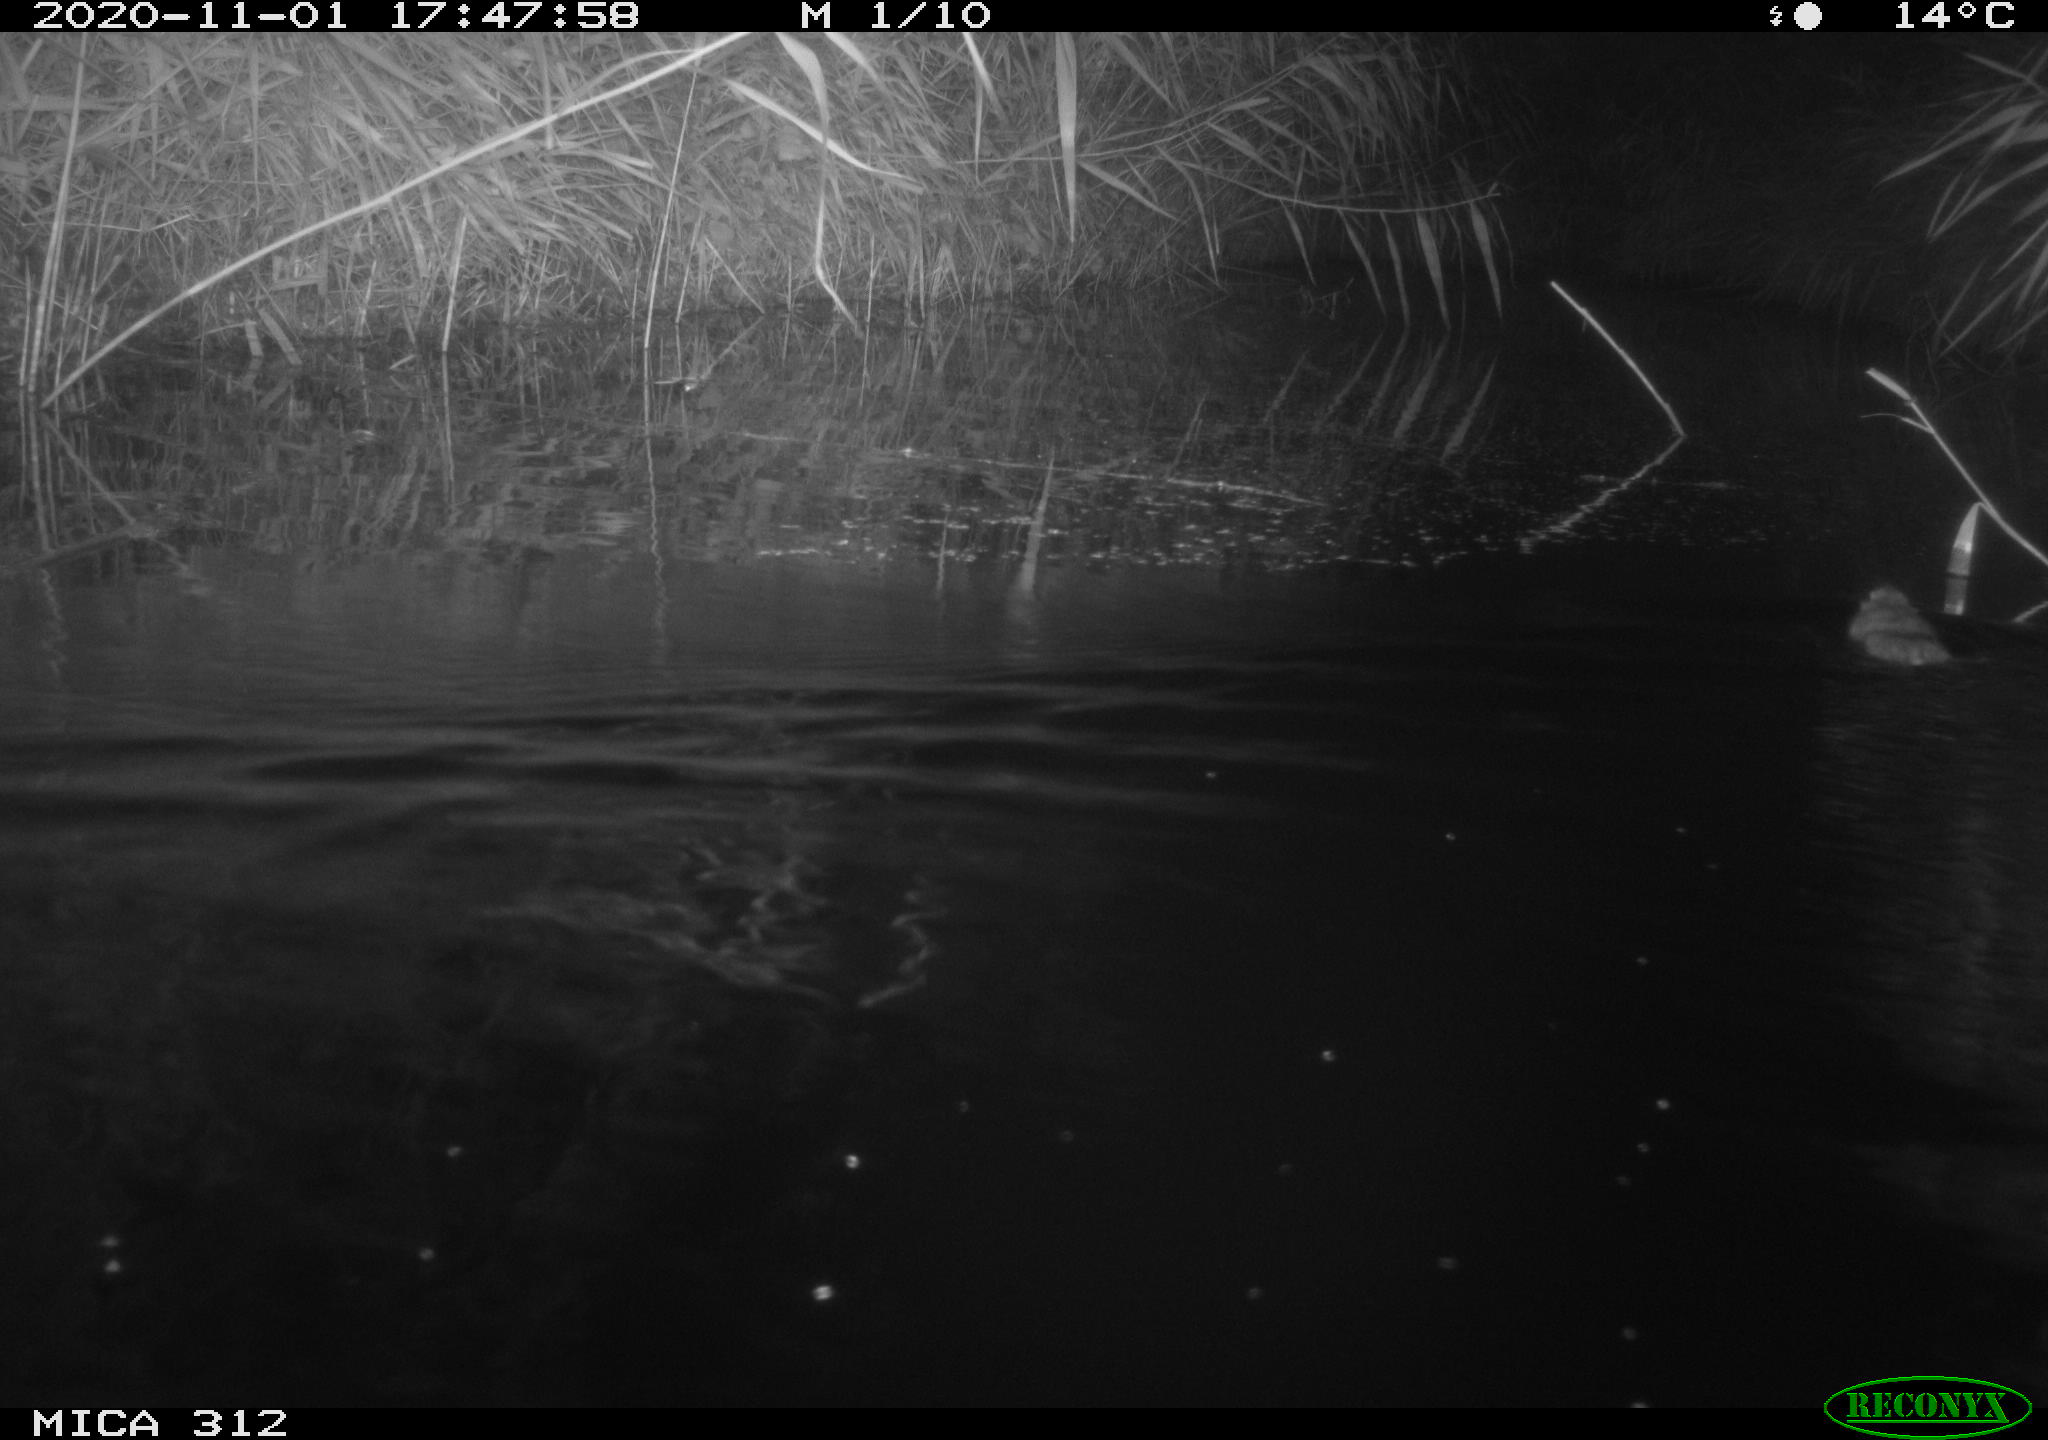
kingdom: Animalia
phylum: Chordata
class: Mammalia
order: Rodentia
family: Cricetidae
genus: Ondatra
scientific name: Ondatra zibethicus
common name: Muskrat
